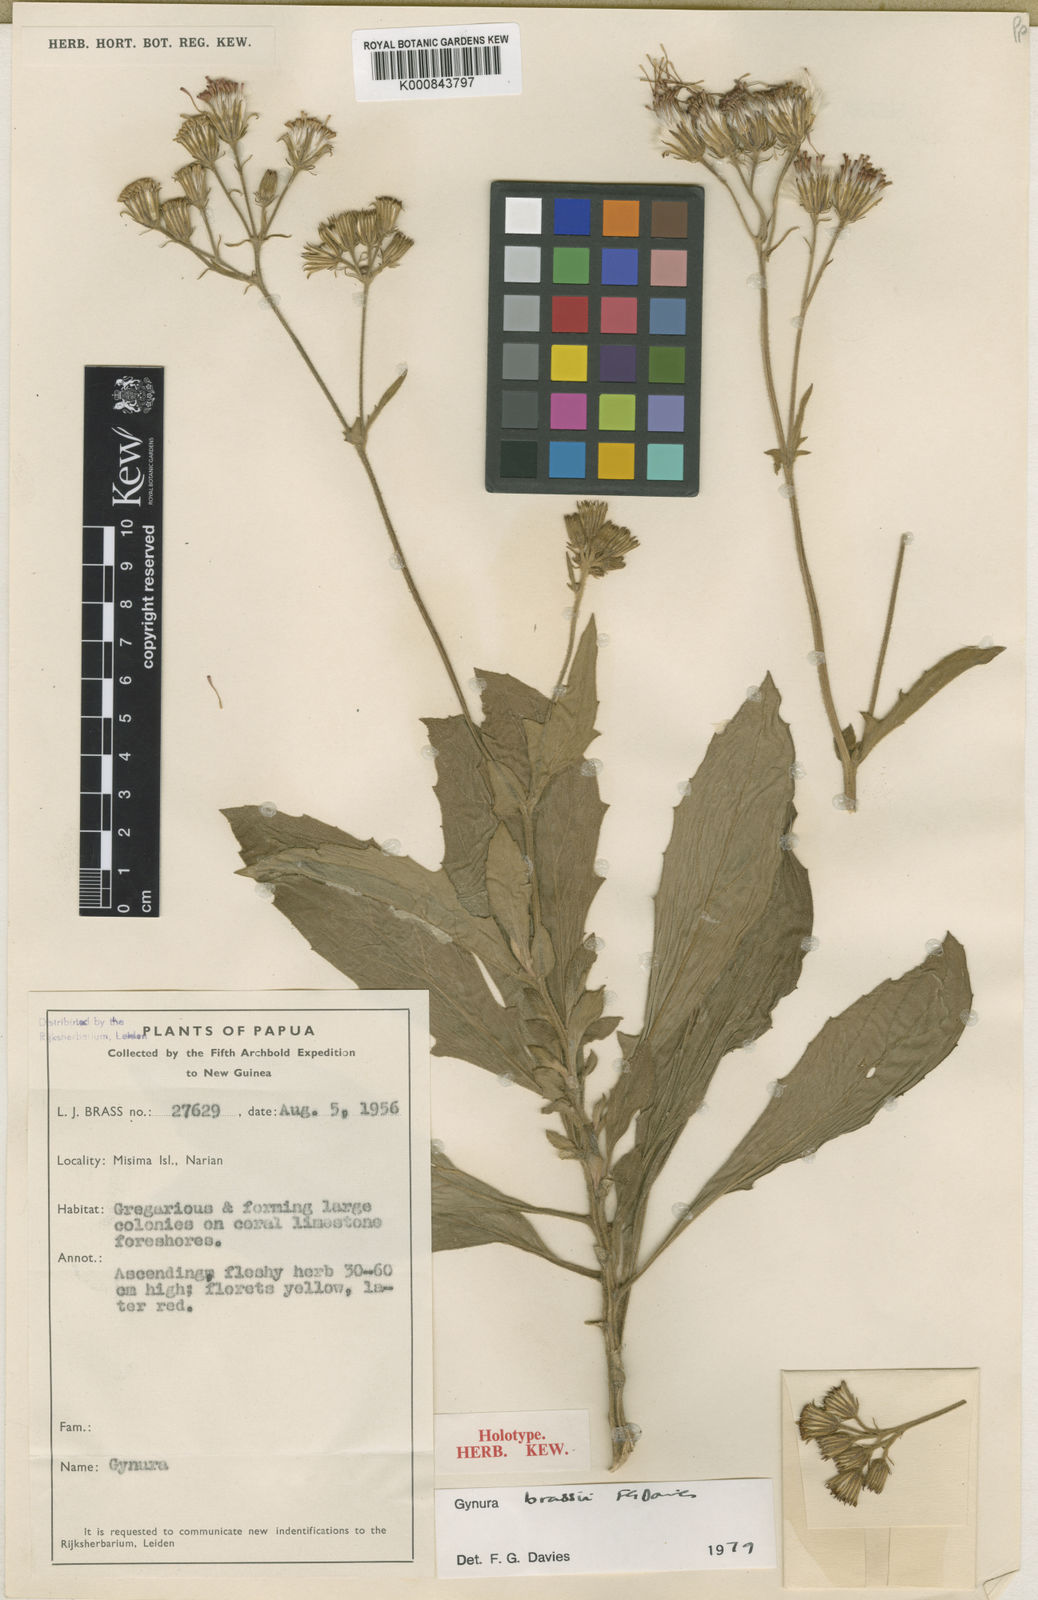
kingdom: Plantae
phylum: Tracheophyta
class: Magnoliopsida
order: Asterales
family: Asteraceae
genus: Gynura
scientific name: Gynura
